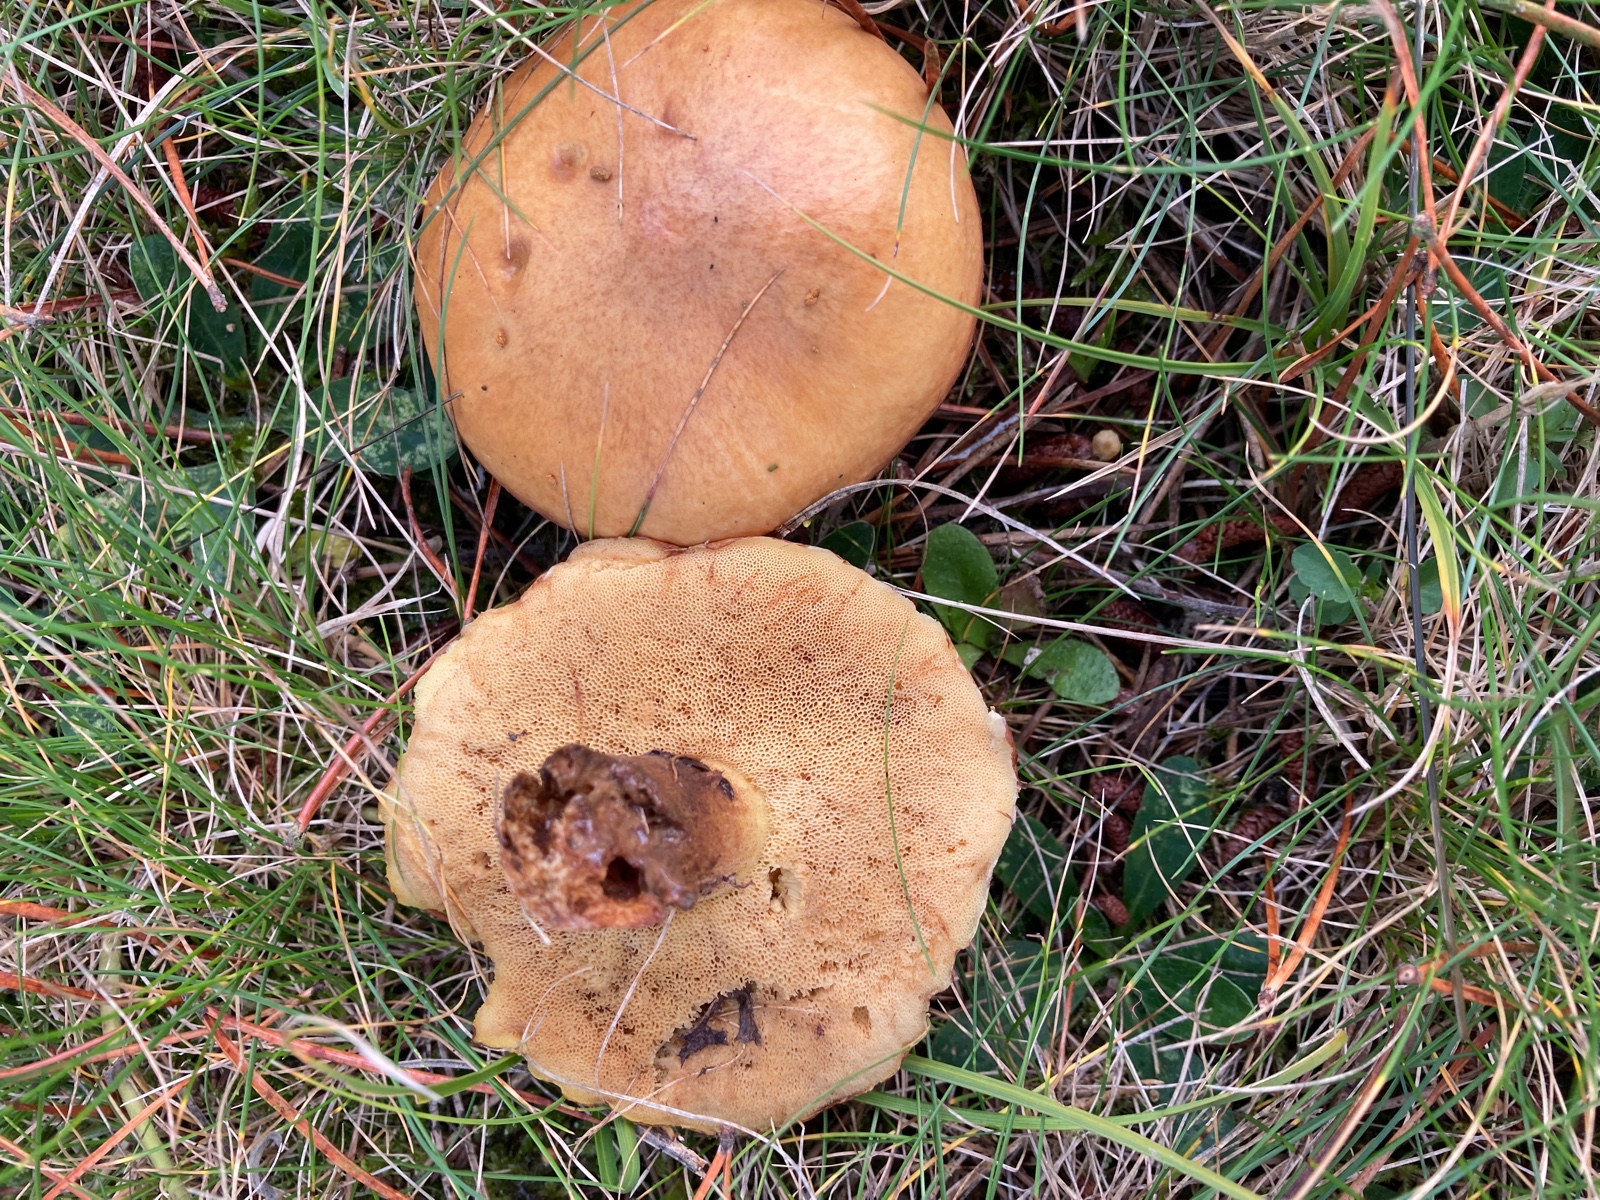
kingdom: Fungi
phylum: Basidiomycota
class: Agaricomycetes
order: Boletales
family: Suillaceae
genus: Suillus
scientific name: Suillus
